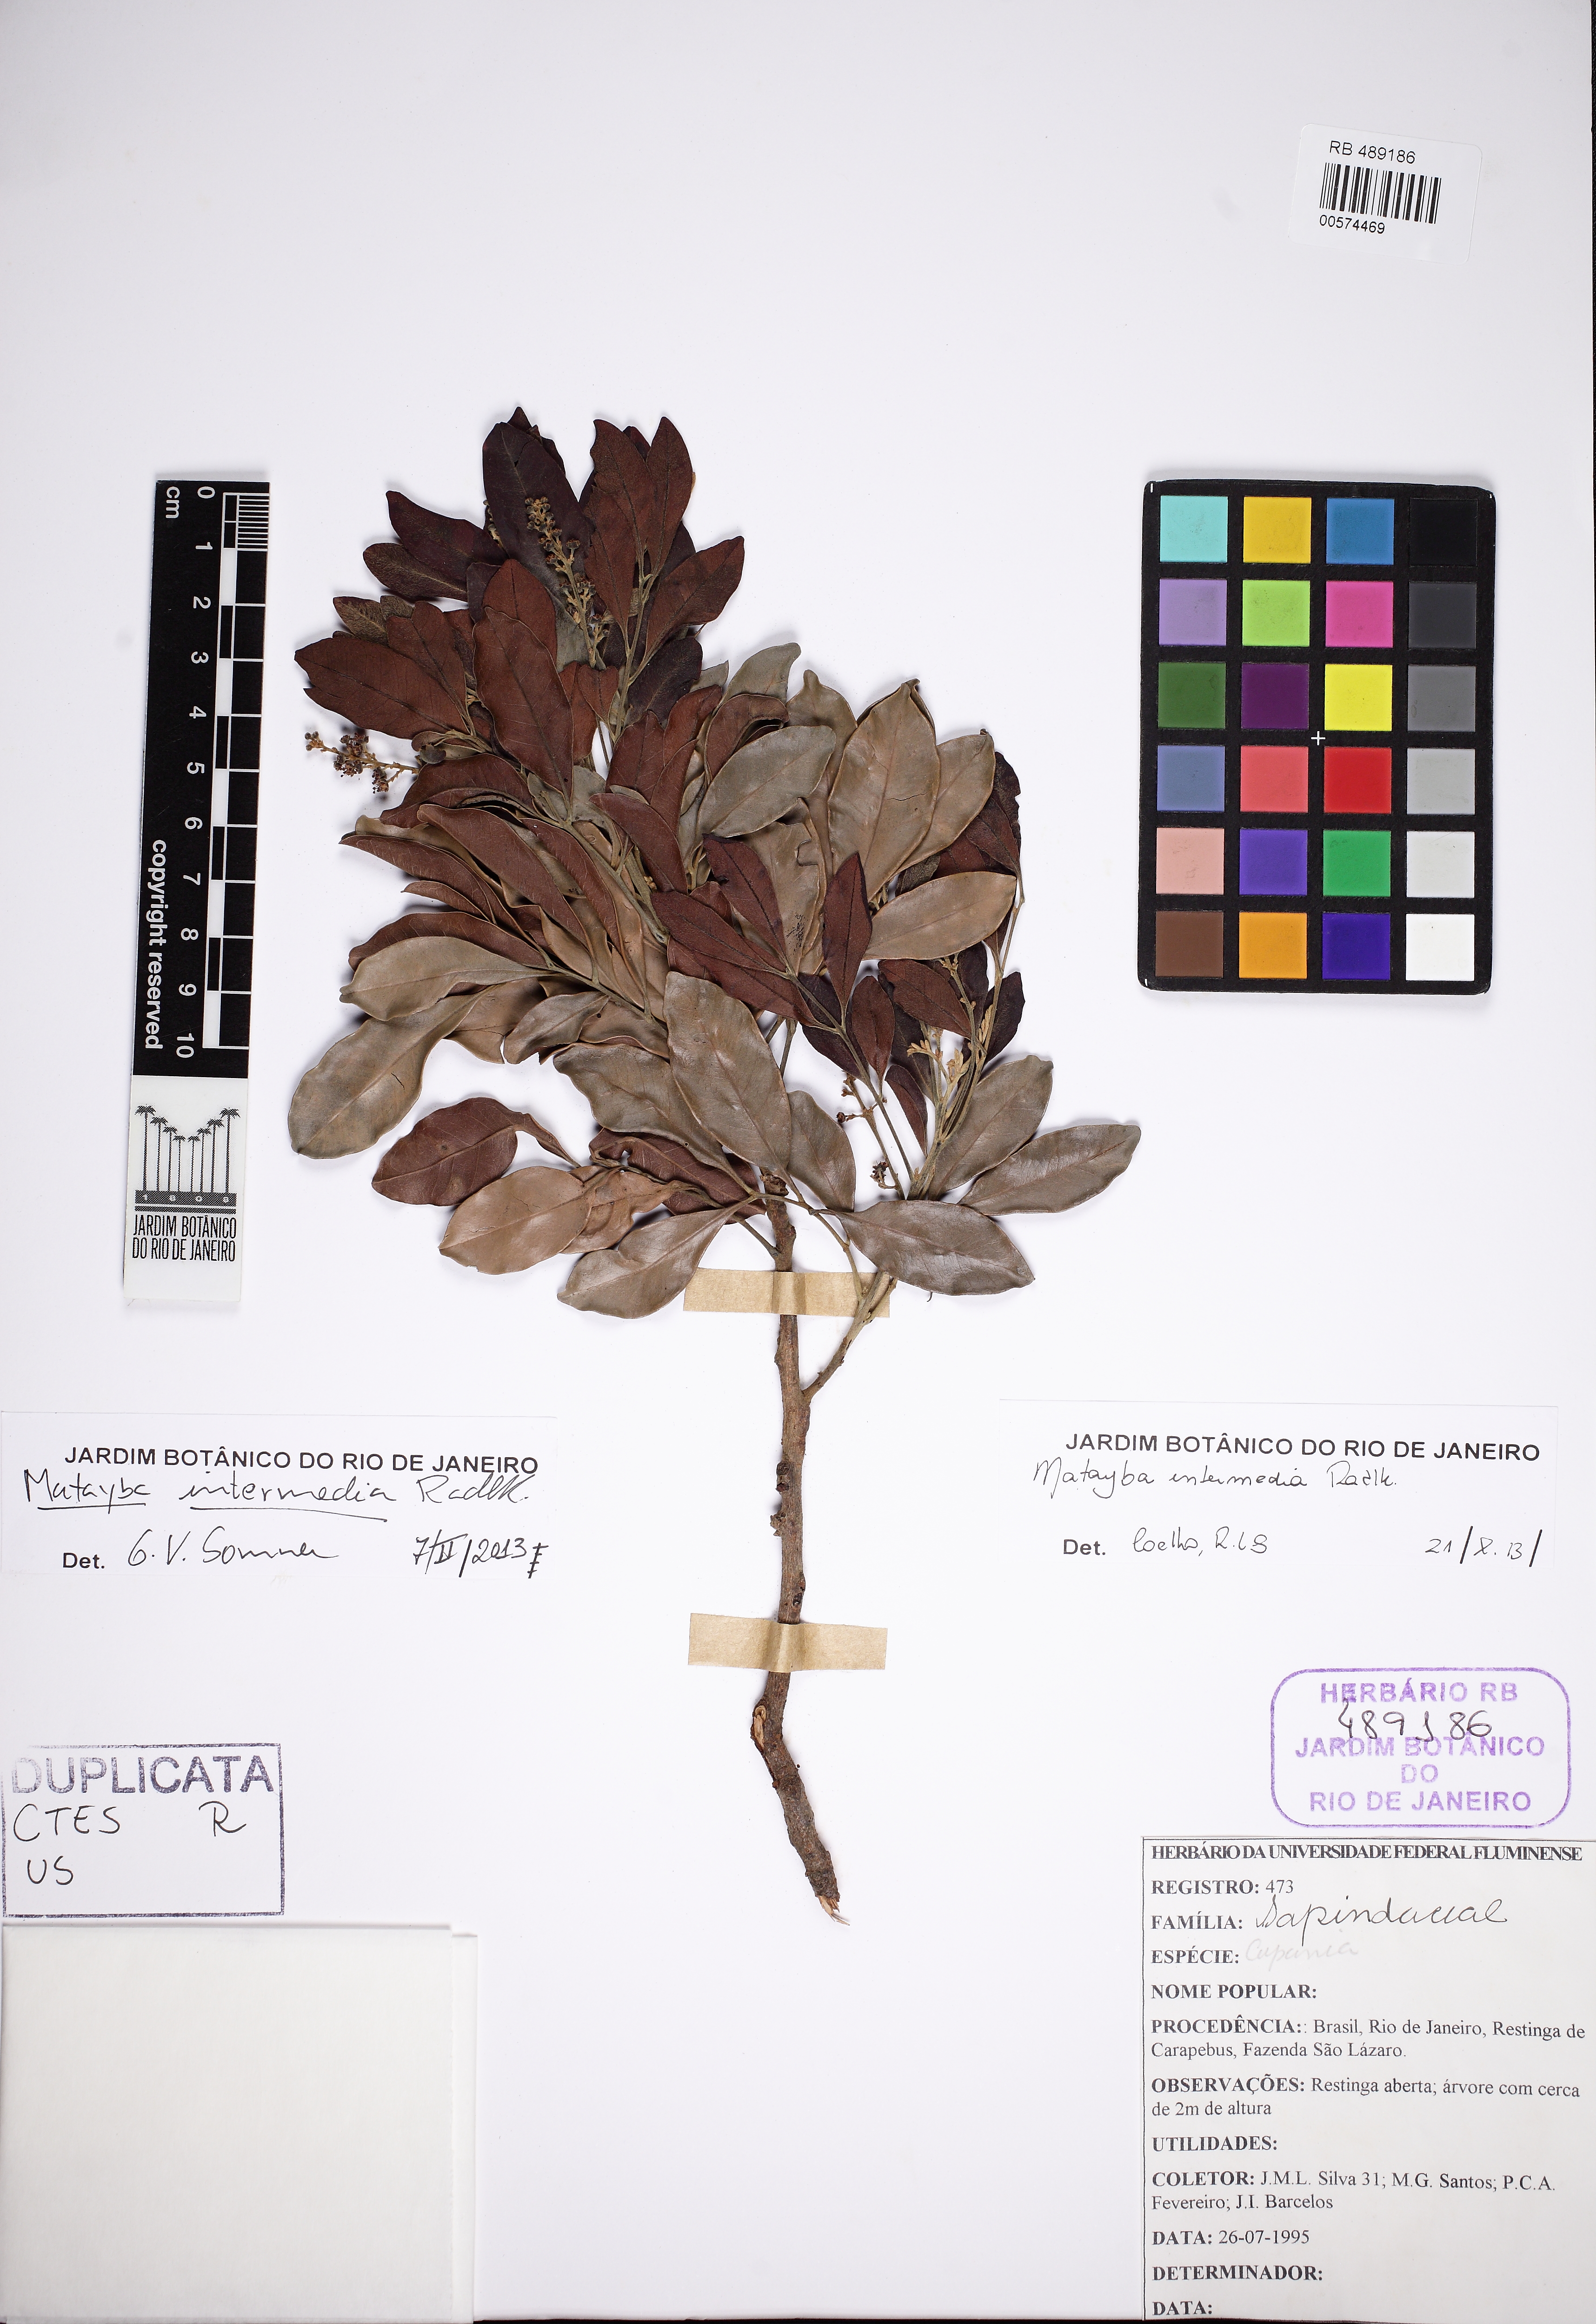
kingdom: Plantae
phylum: Tracheophyta
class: Magnoliopsida
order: Sapindales
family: Sapindaceae
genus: Matayba
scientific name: Matayba intermedia
